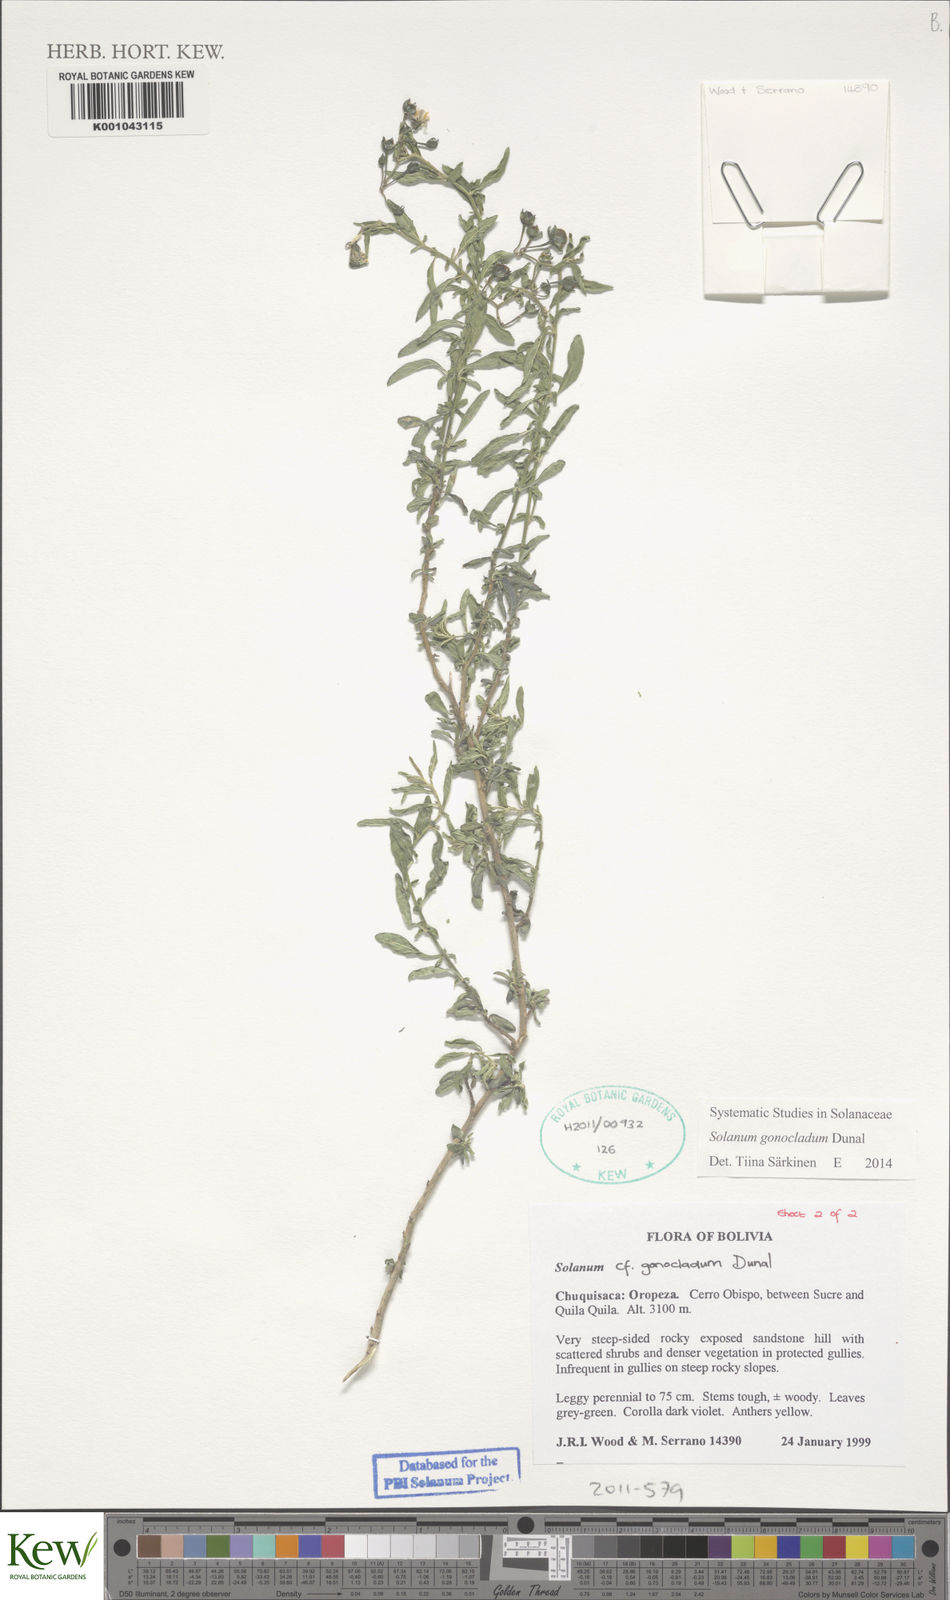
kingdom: Plantae
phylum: Tracheophyta
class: Magnoliopsida
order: Solanales
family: Solanaceae
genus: Solanum
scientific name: Solanum gonocladum
